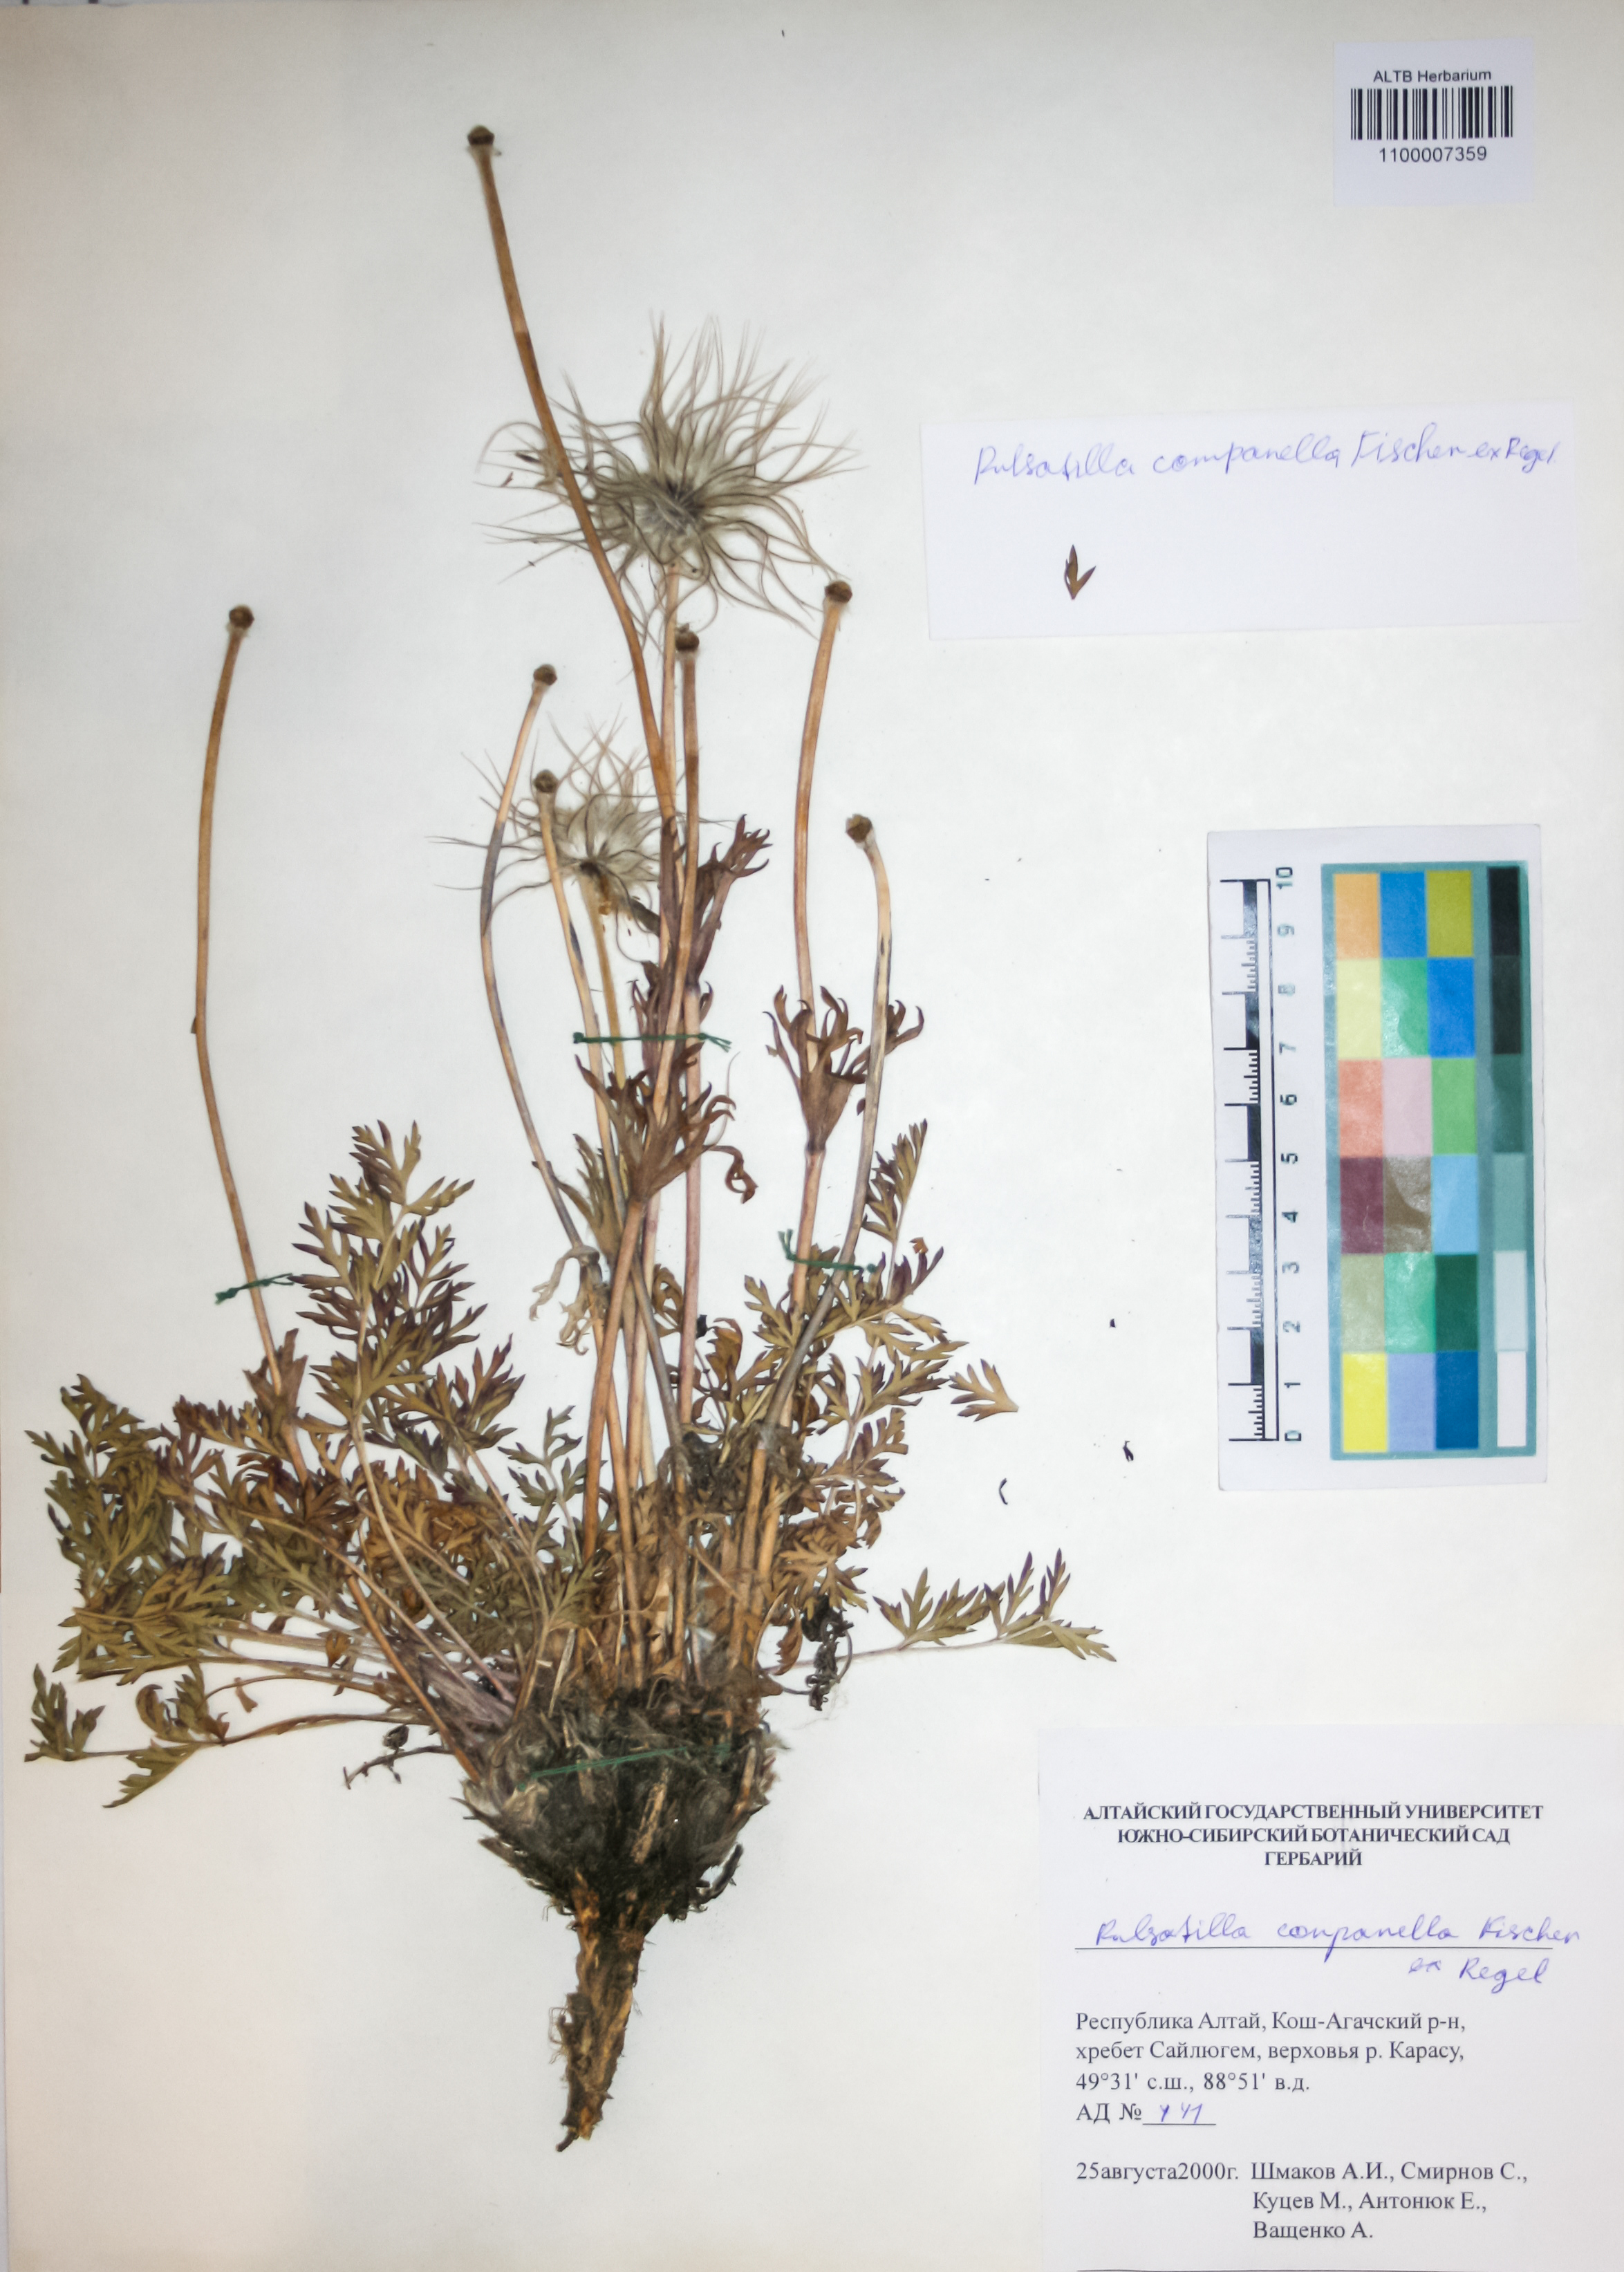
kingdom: Plantae
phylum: Tracheophyta
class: Magnoliopsida
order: Ranunculales
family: Ranunculaceae
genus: Pulsatilla
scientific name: Pulsatilla campanella
